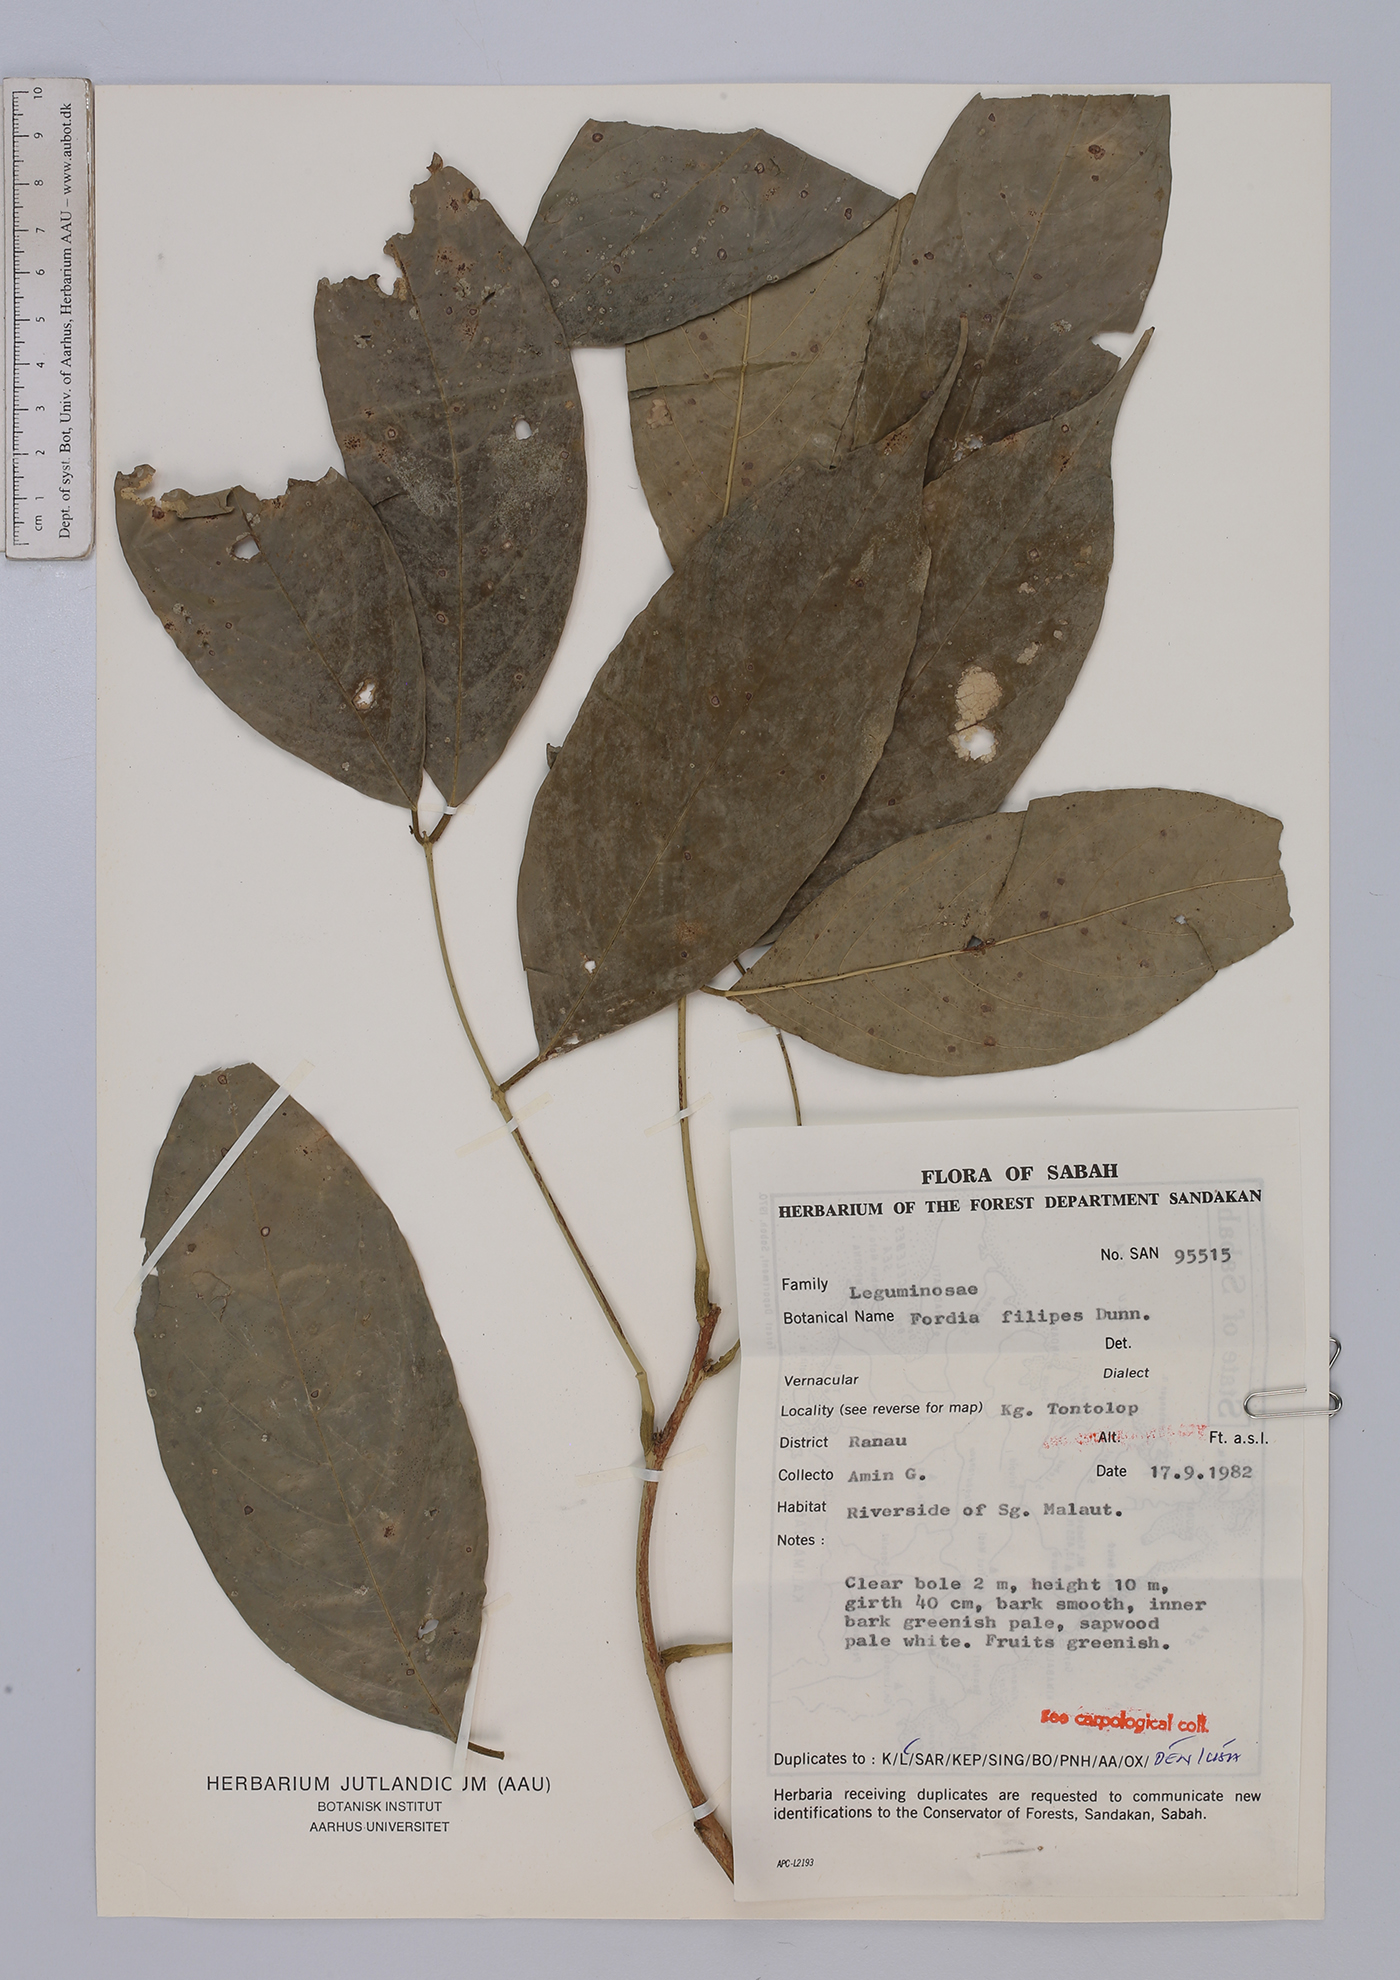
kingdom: Plantae
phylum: Tracheophyta
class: Magnoliopsida
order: Fabales
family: Fabaceae
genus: Fordia
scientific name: Fordia splendidissima
